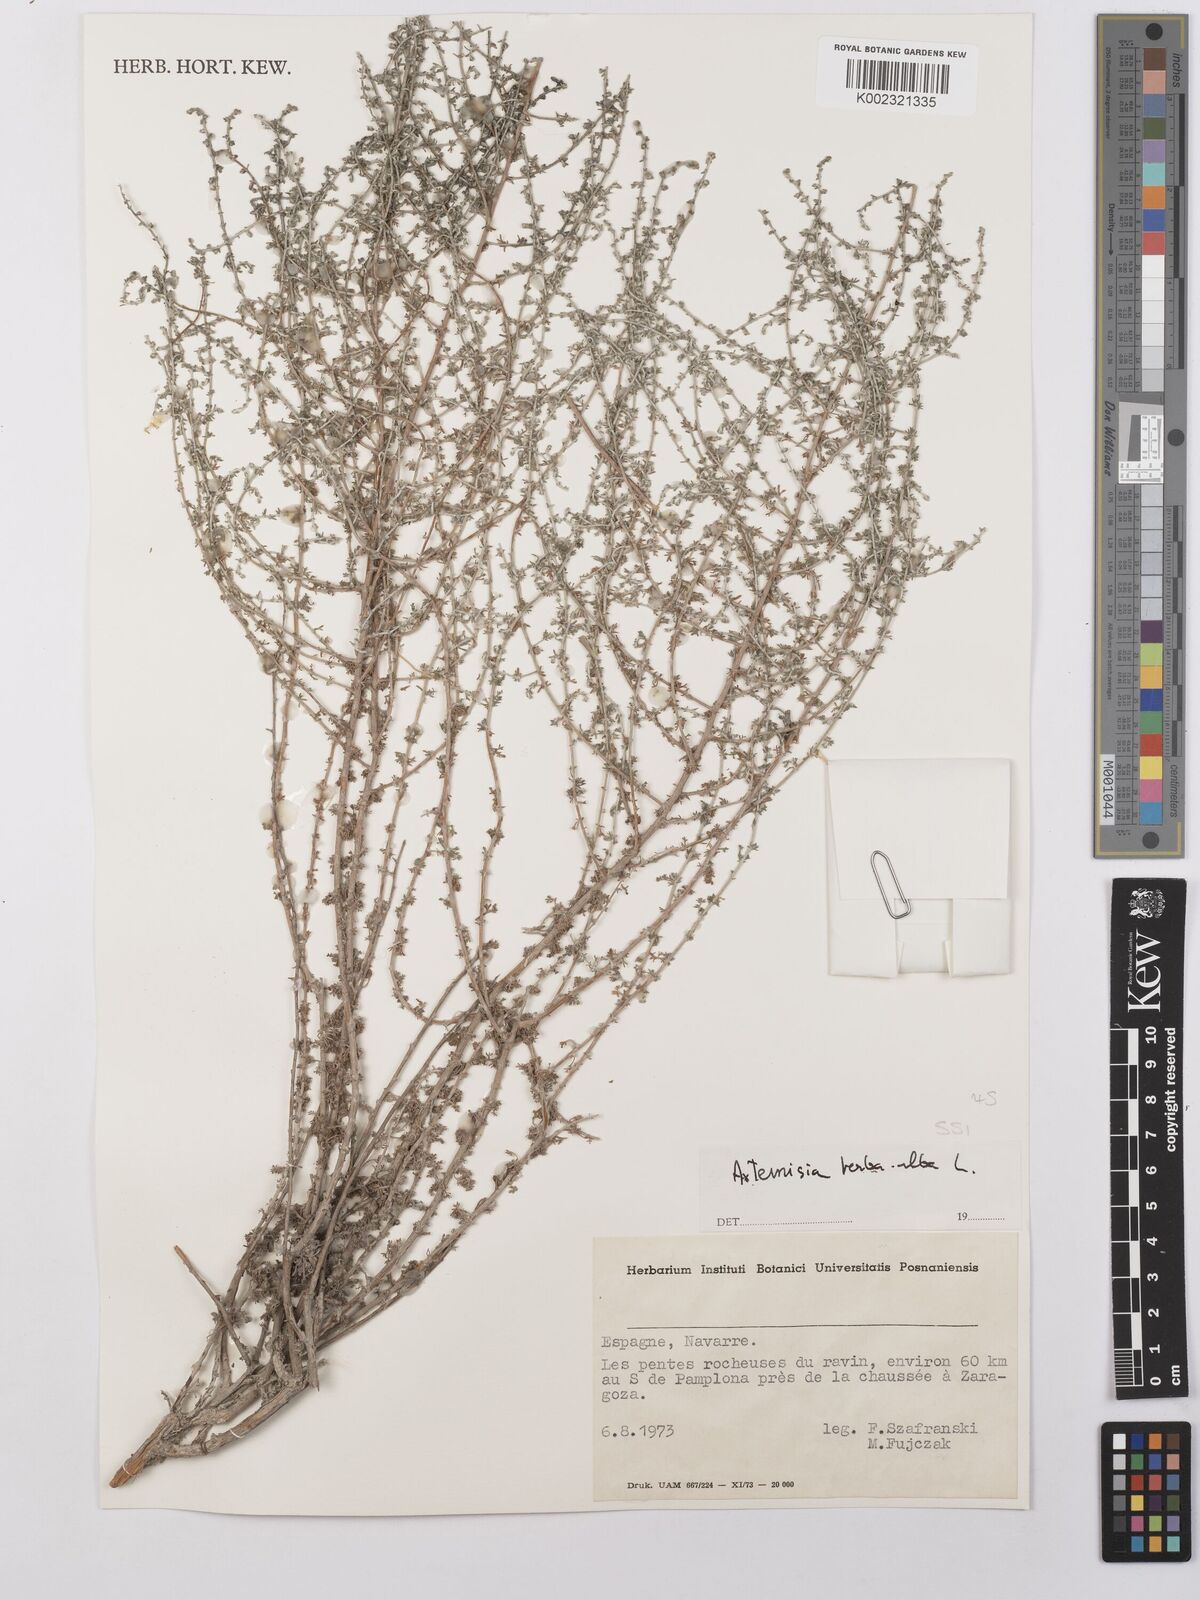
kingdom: Plantae
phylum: Tracheophyta
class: Magnoliopsida
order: Asterales
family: Asteraceae
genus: Artemisia
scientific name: Artemisia herba-alba
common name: White wormwood
